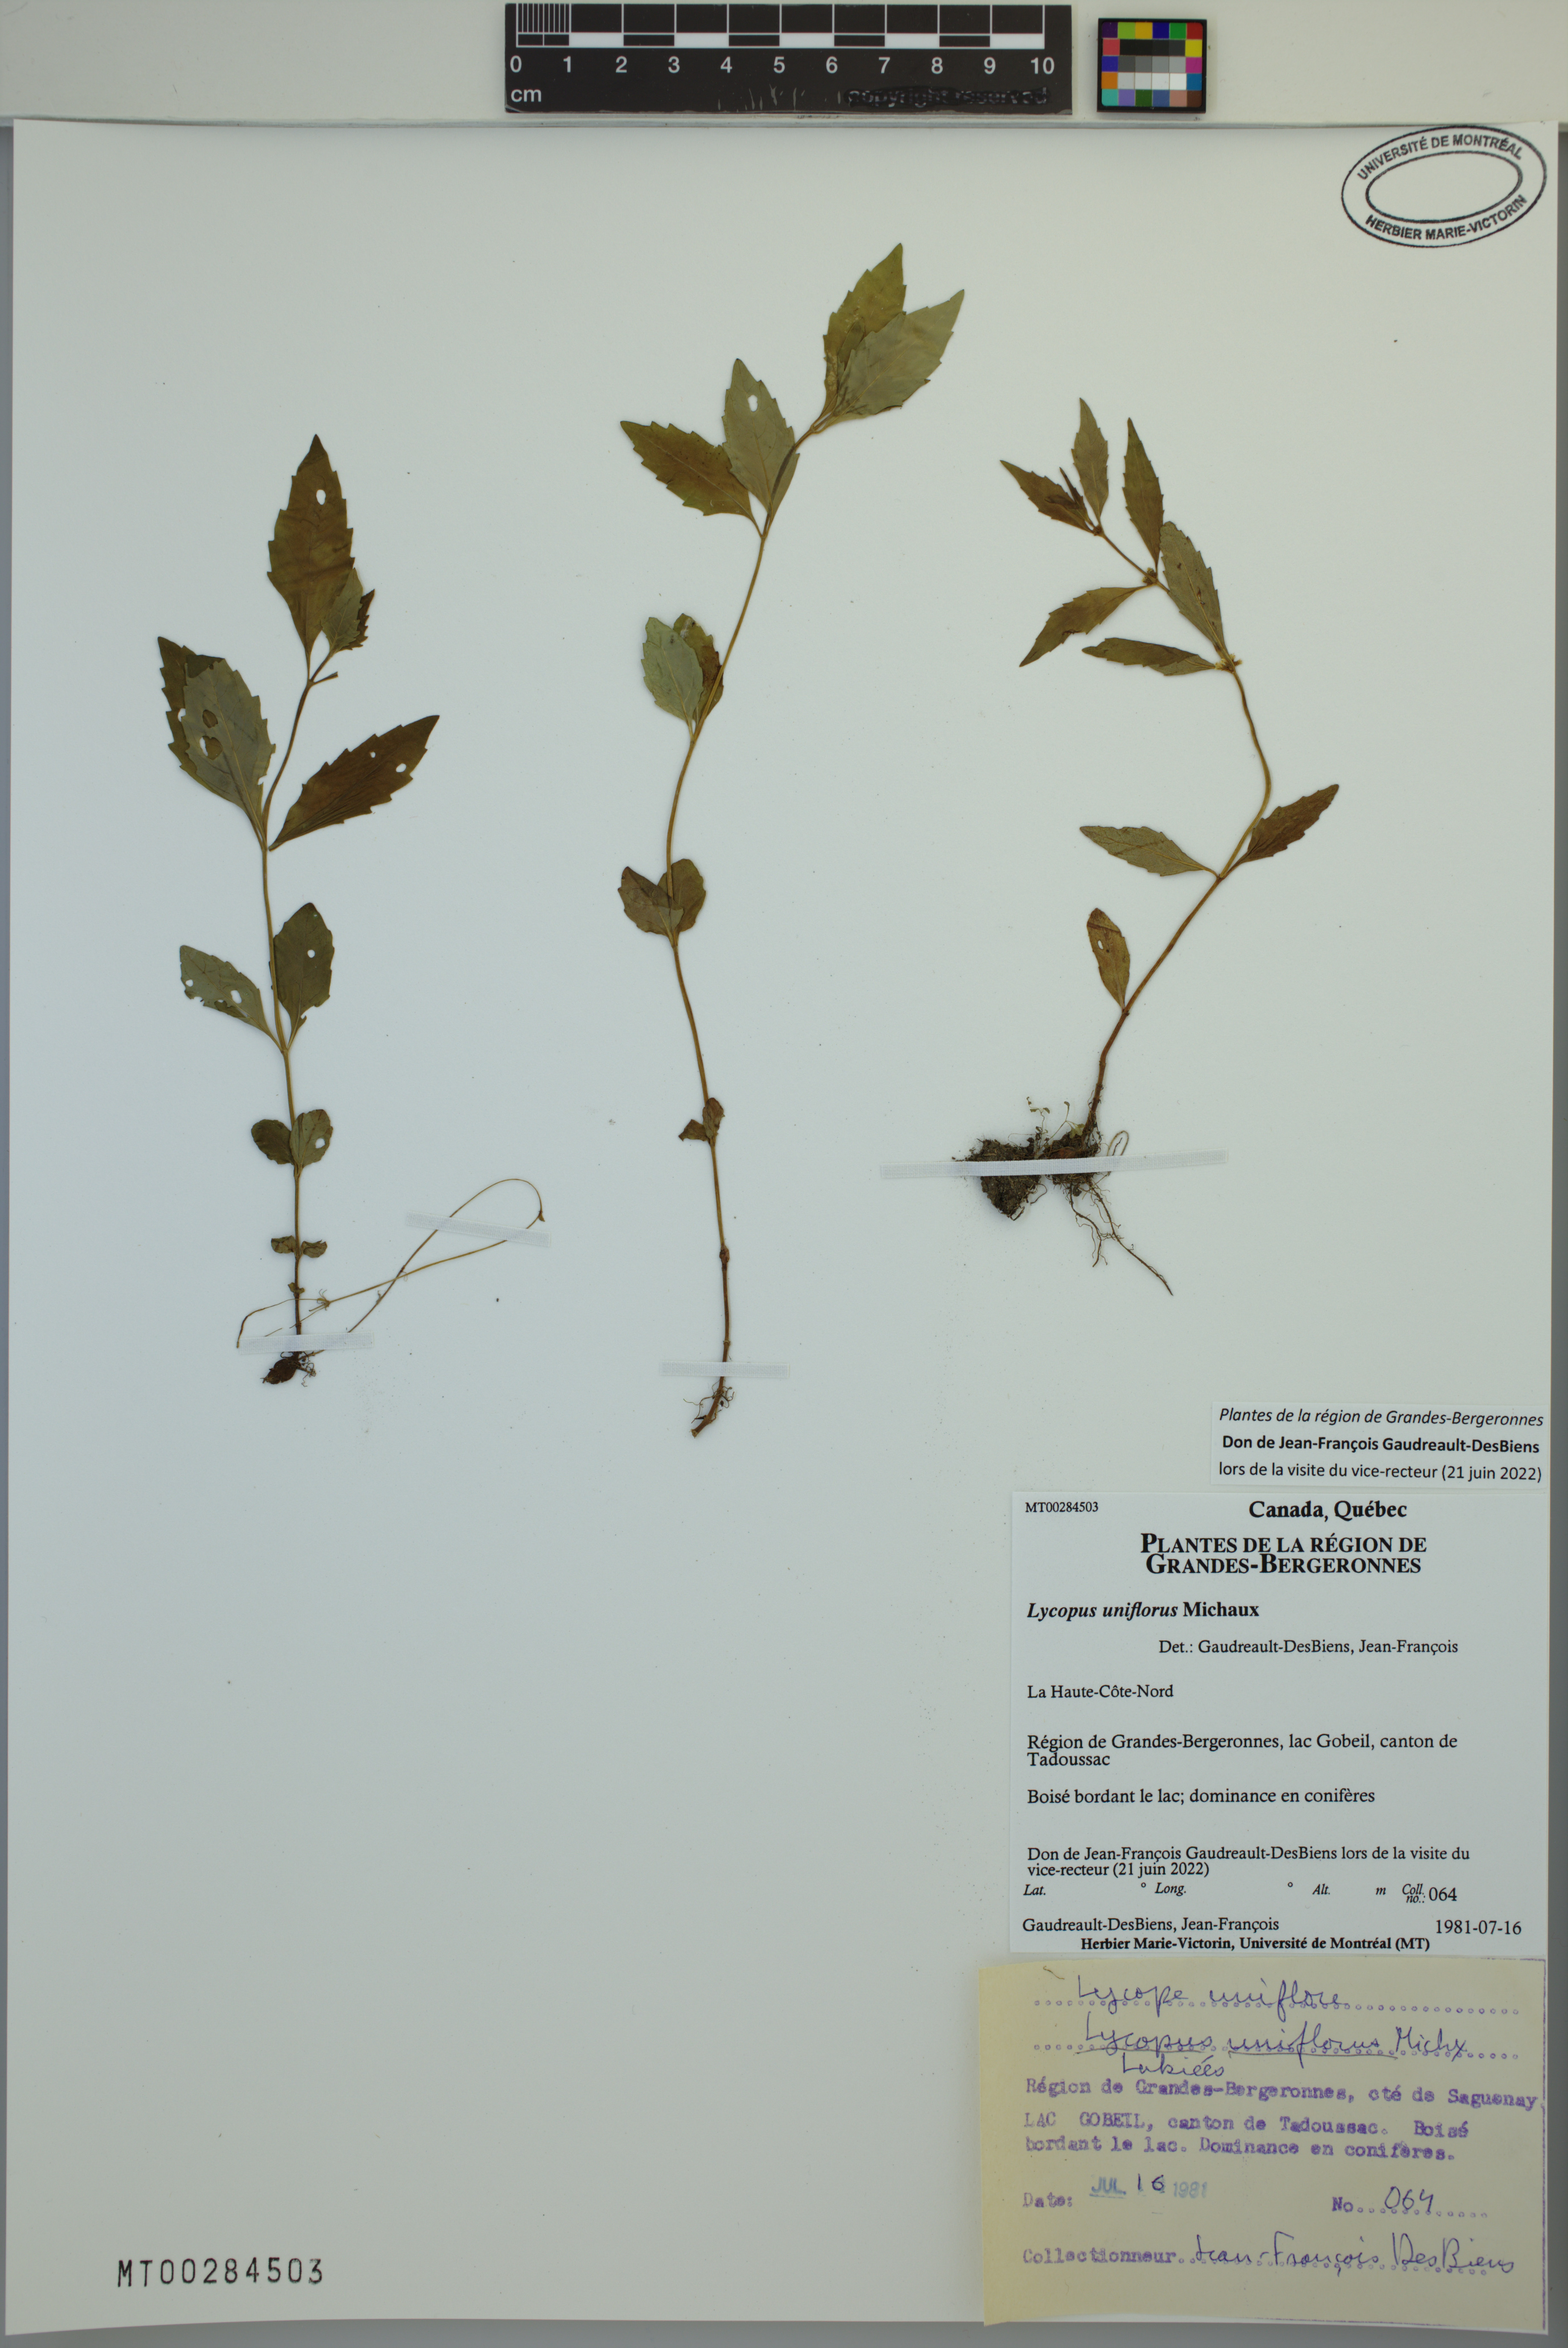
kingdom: Plantae
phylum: Tracheophyta
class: Magnoliopsida
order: Lamiales
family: Lamiaceae
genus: Lycopus
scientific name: Lycopus uniflorus
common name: Northern bugleweed
